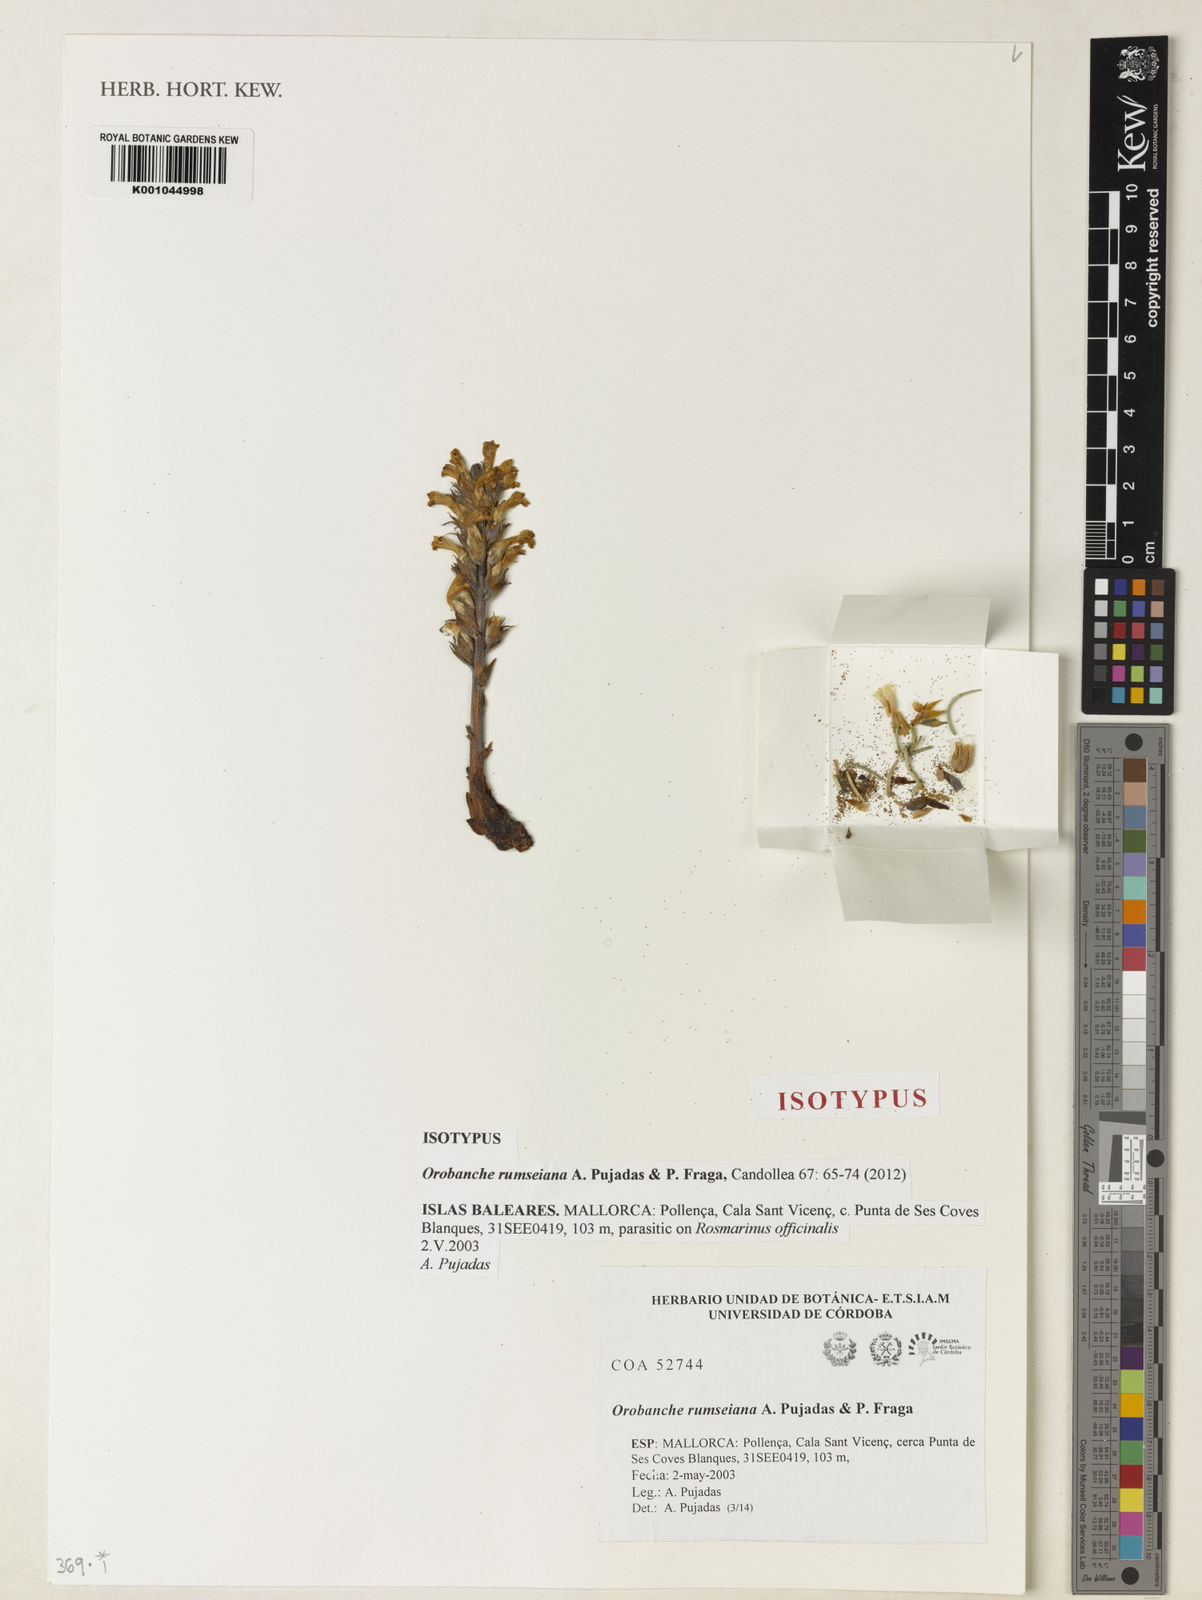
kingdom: Plantae
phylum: Tracheophyta
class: Magnoliopsida
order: Lamiales
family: Orobanchaceae
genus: Orobanche
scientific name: Orobanche
